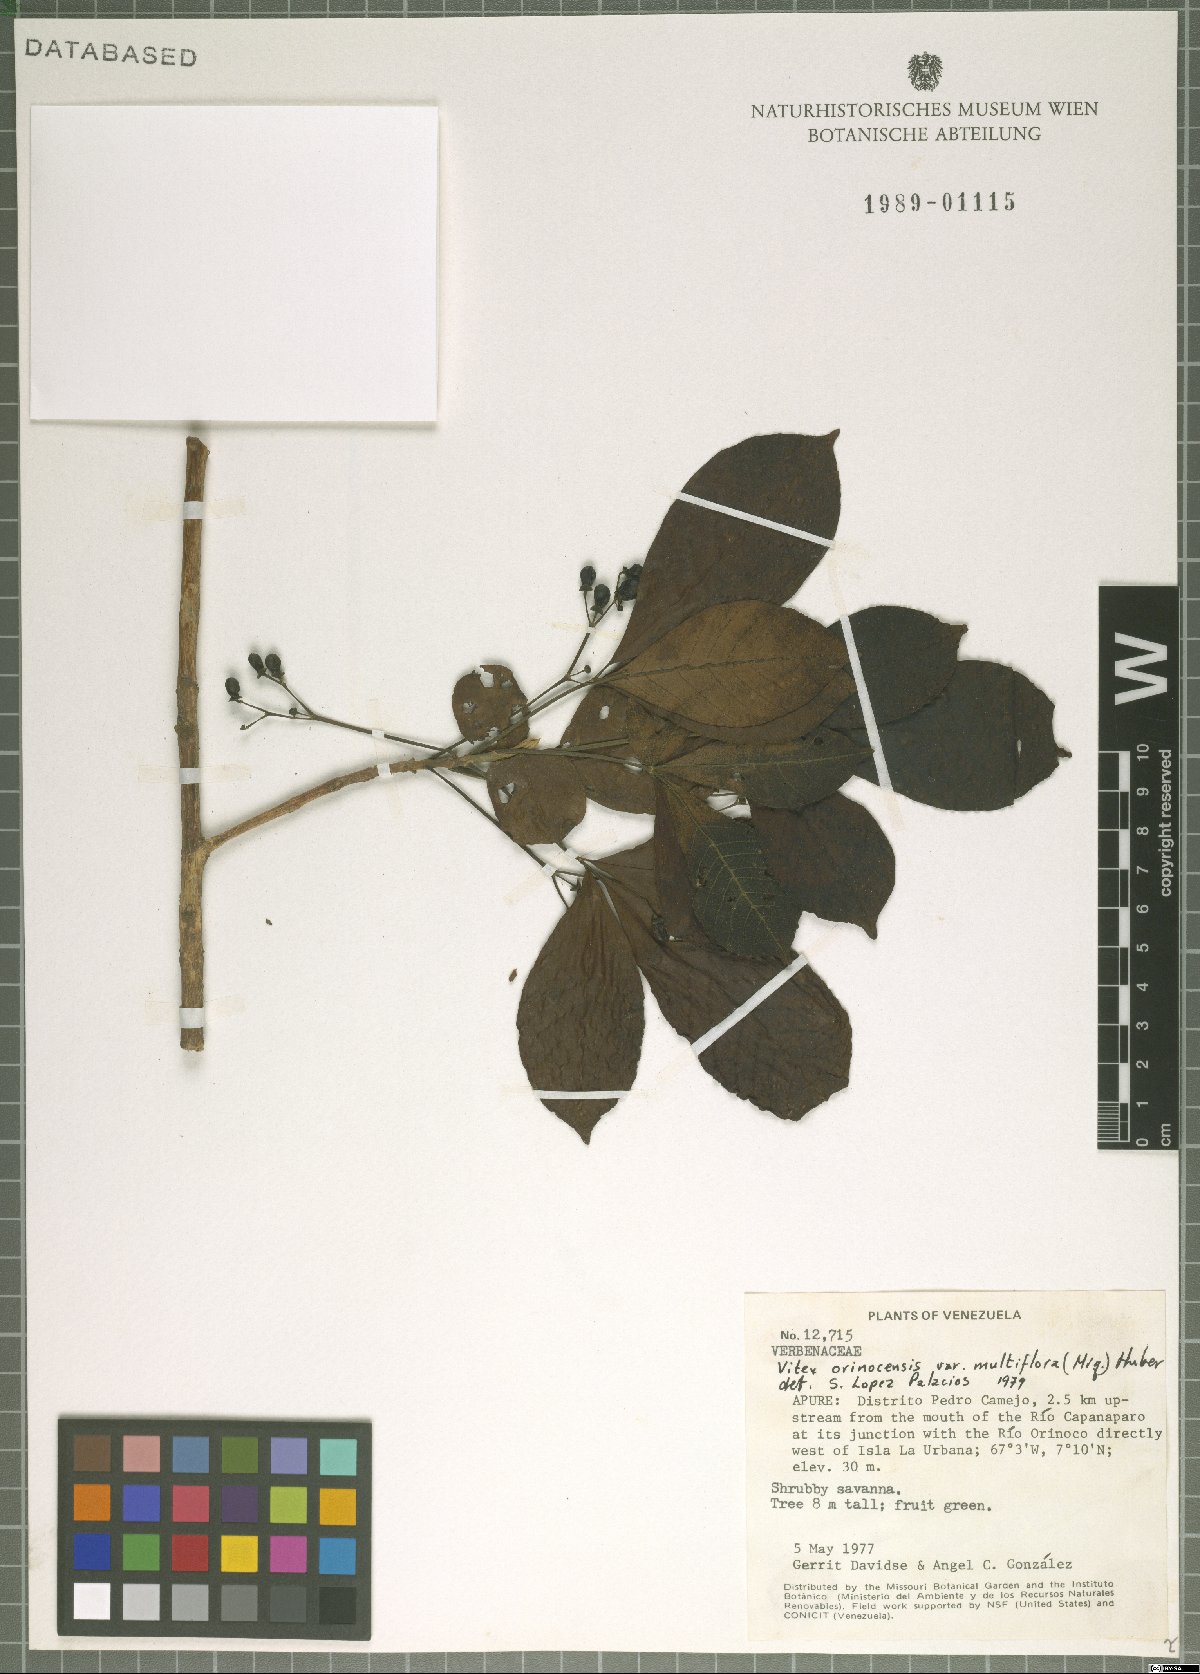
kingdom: Plantae
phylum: Tracheophyta
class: Magnoliopsida
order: Lamiales
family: Lamiaceae
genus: Vitex
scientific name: Vitex orinocensis
